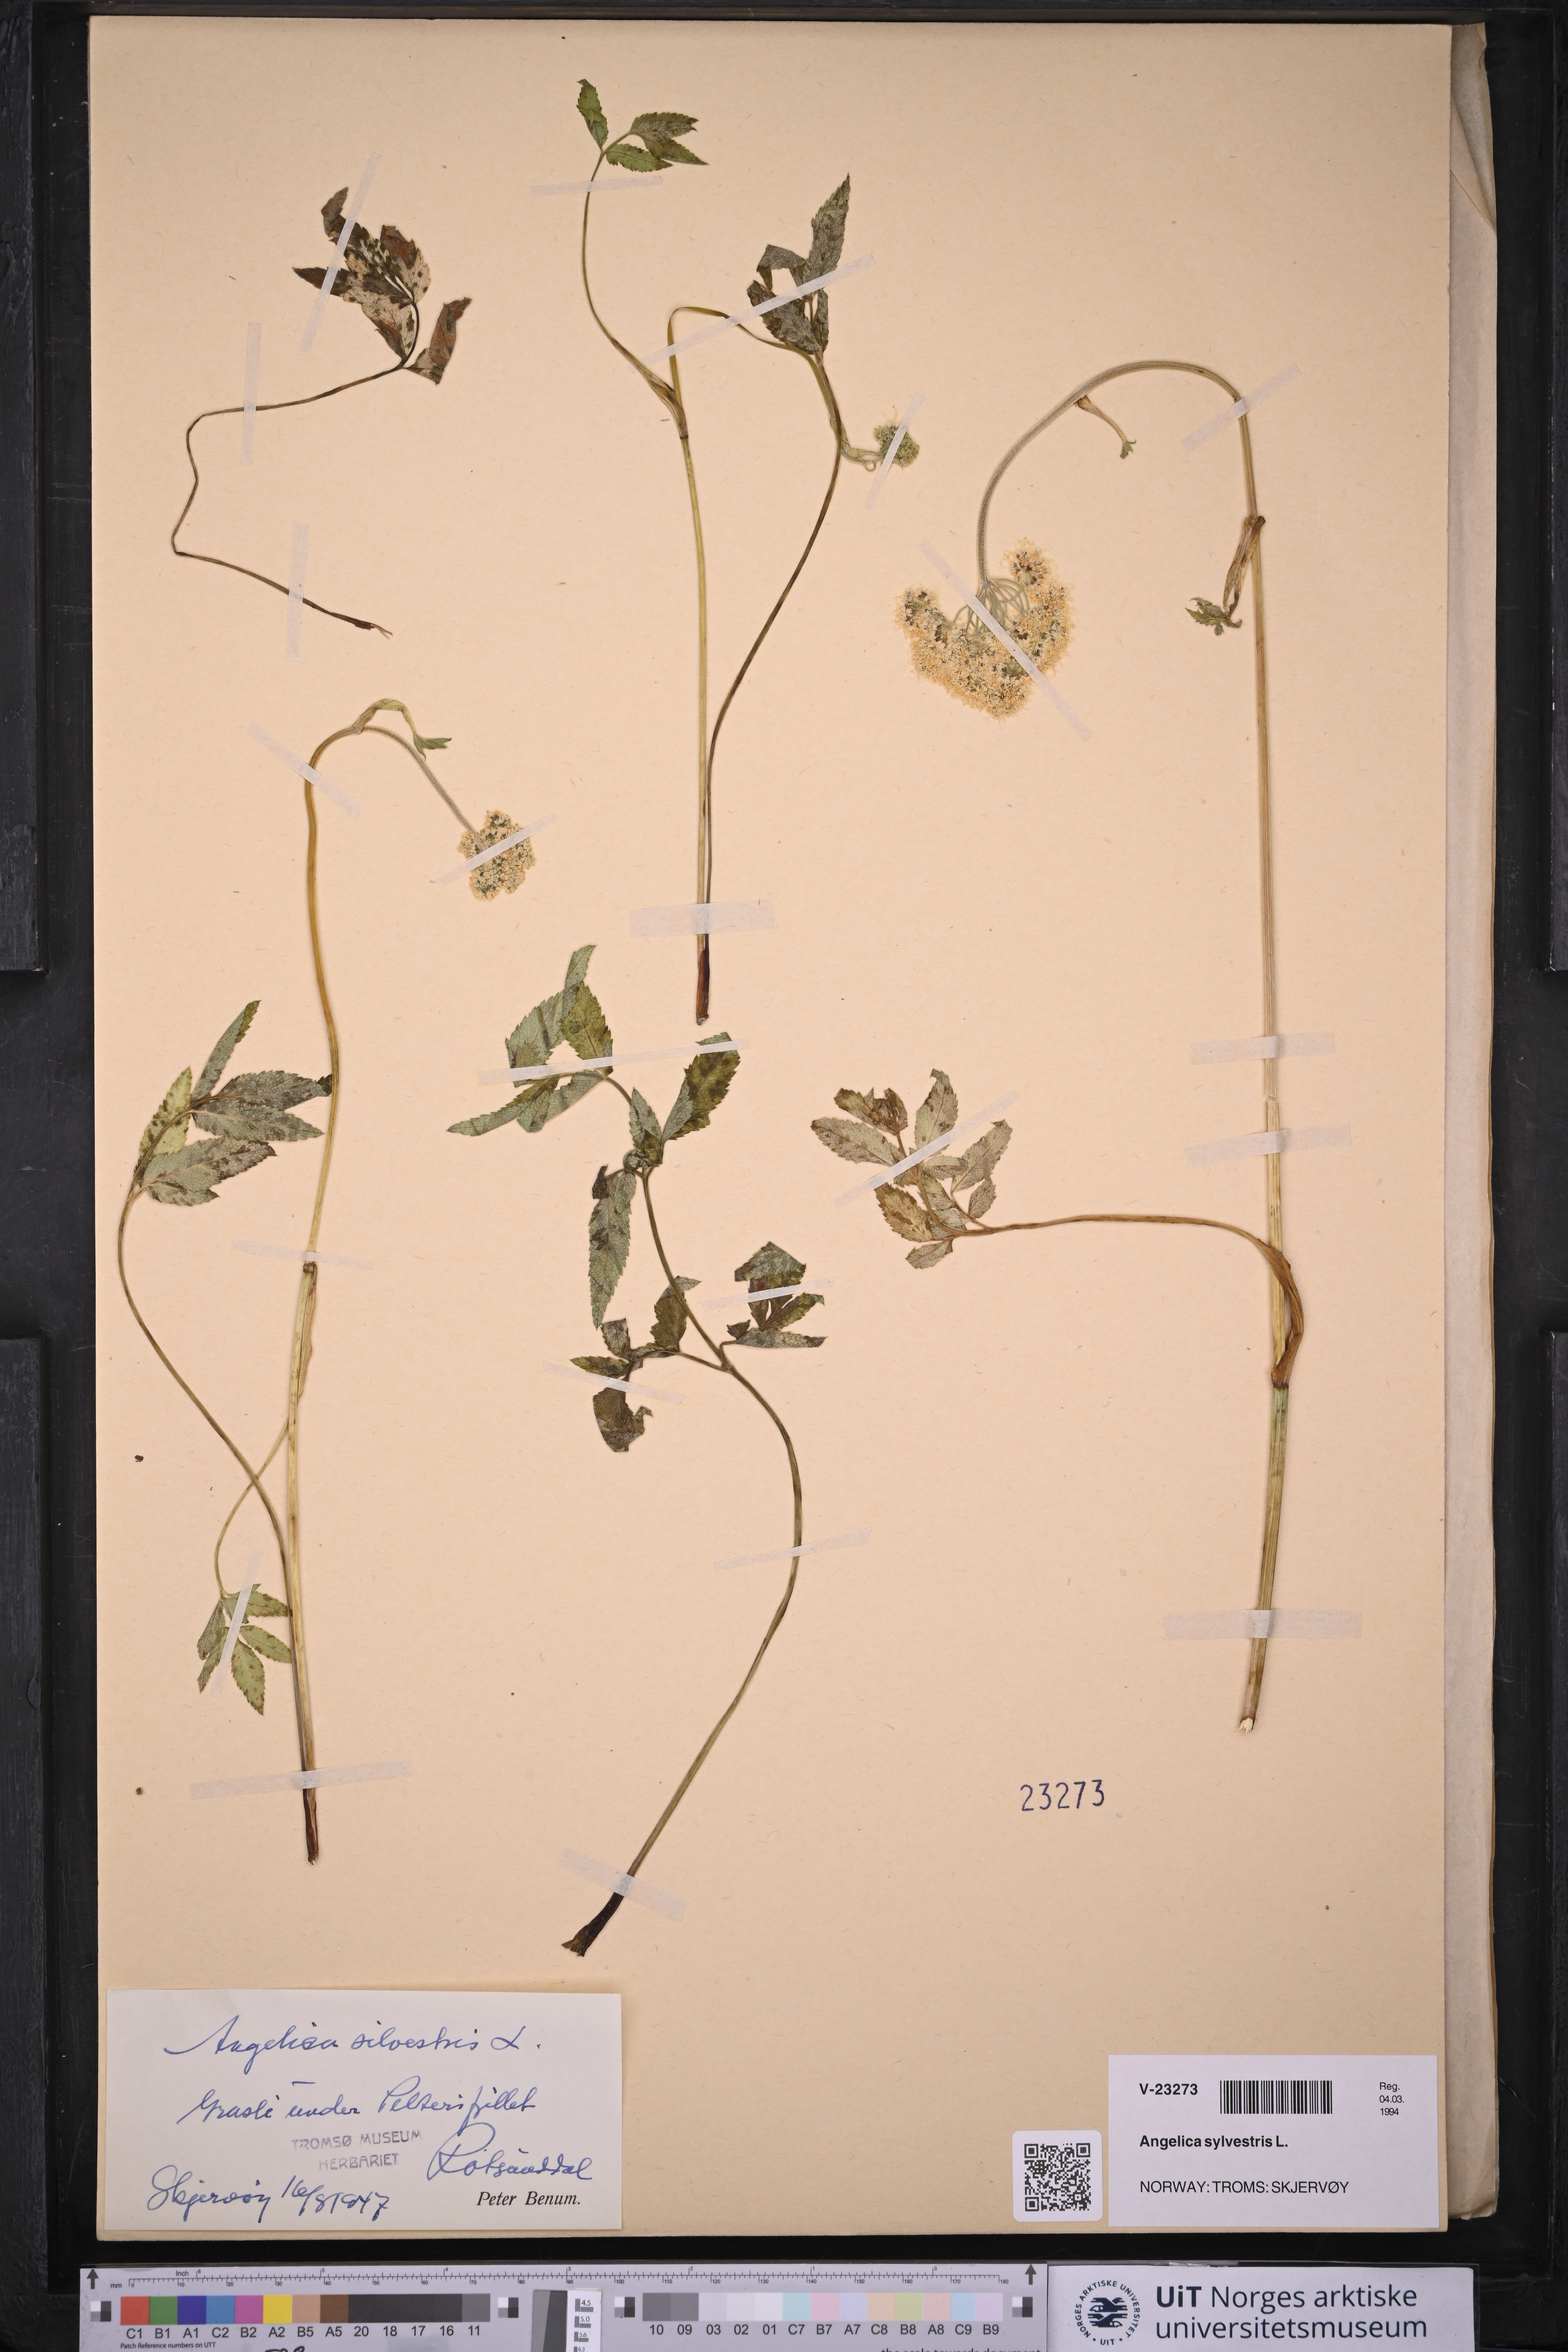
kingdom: Plantae
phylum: Tracheophyta
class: Magnoliopsida
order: Apiales
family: Apiaceae
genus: Angelica
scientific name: Angelica sylvestris
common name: Wild angelica
